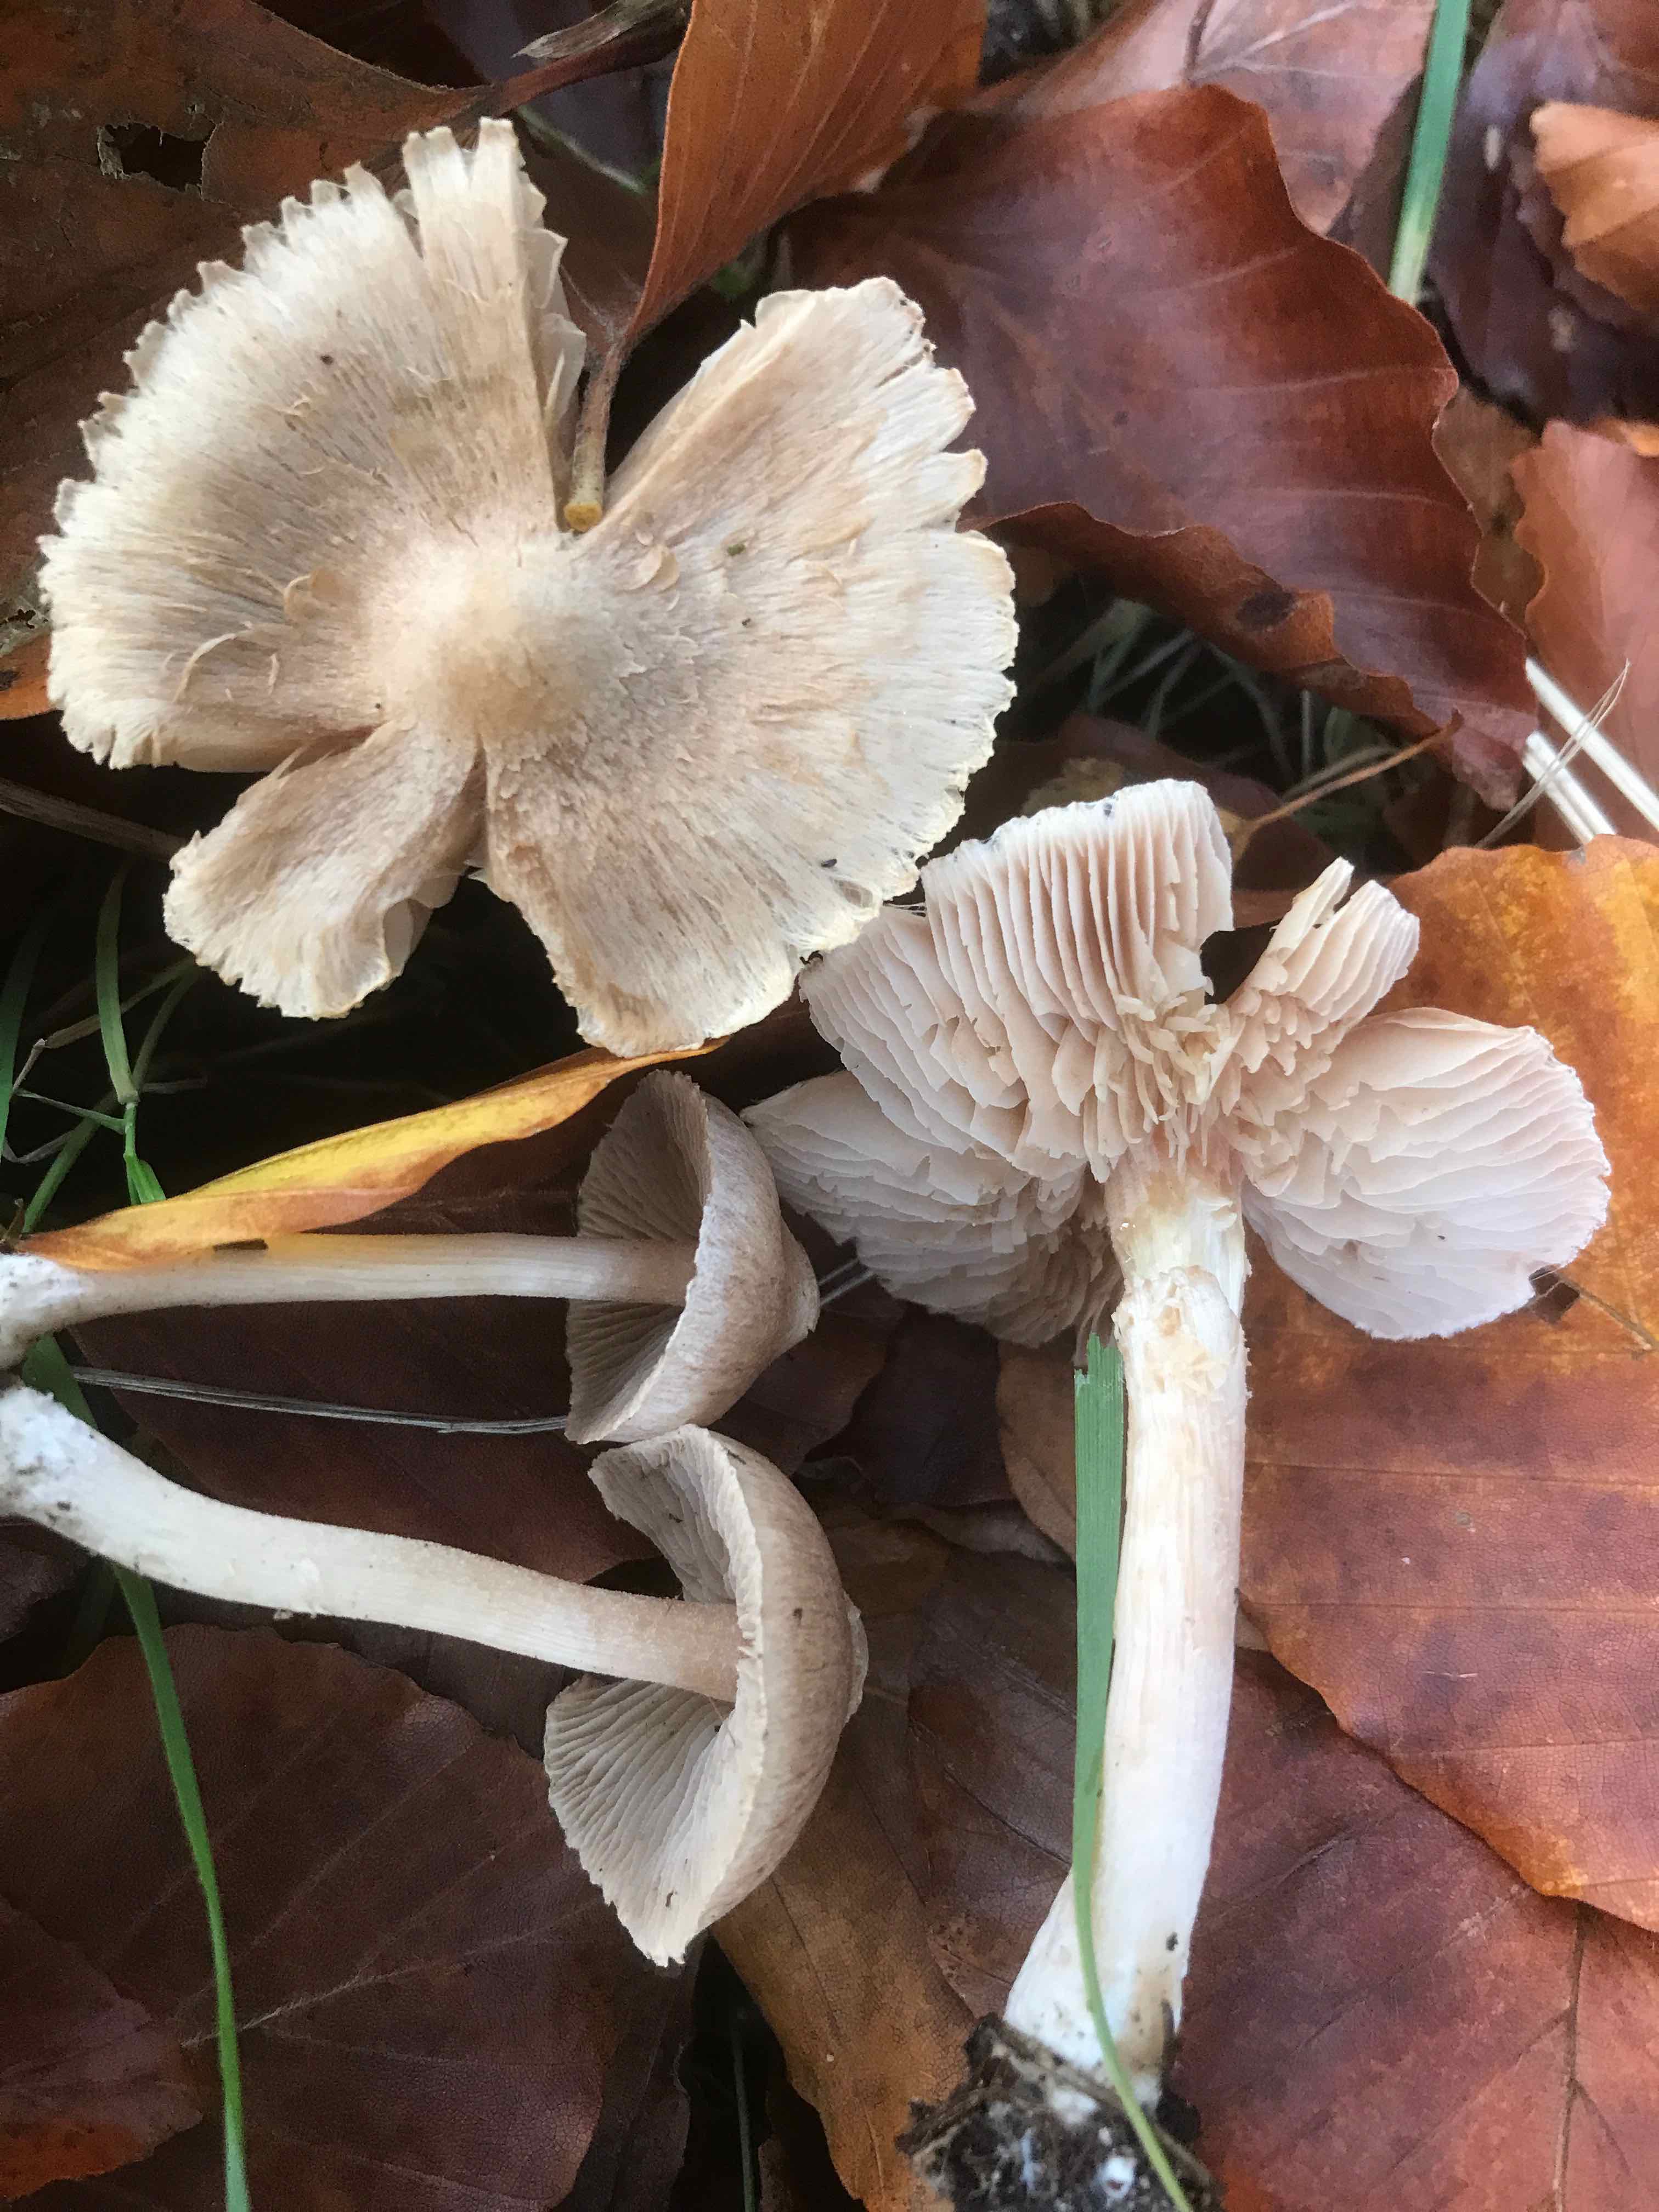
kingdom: Fungi
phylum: Basidiomycota
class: Agaricomycetes
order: Agaricales
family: Inocybaceae
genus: Inocybe
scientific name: Inocybe
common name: trævlhat
